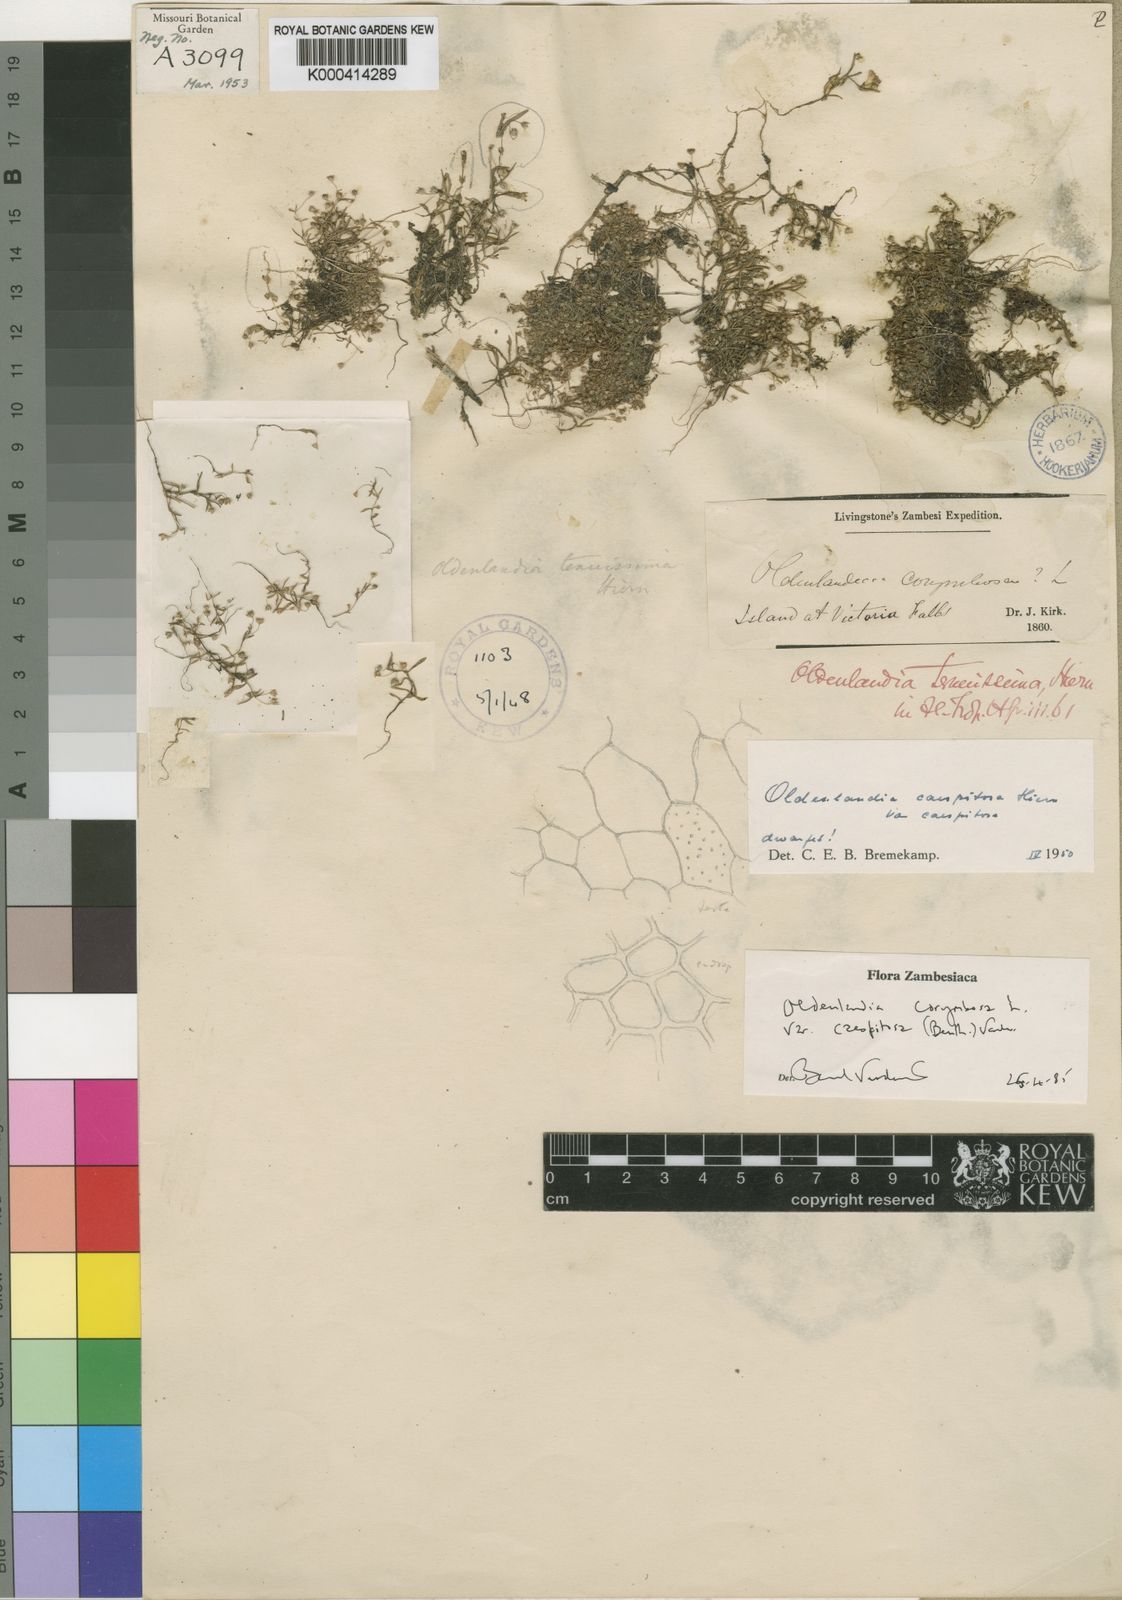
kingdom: Plantae
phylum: Tracheophyta
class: Magnoliopsida
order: Gentianales
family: Rubiaceae
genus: Oldenlandia
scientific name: Oldenlandia corymbosa
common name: Flat-top mille graines
